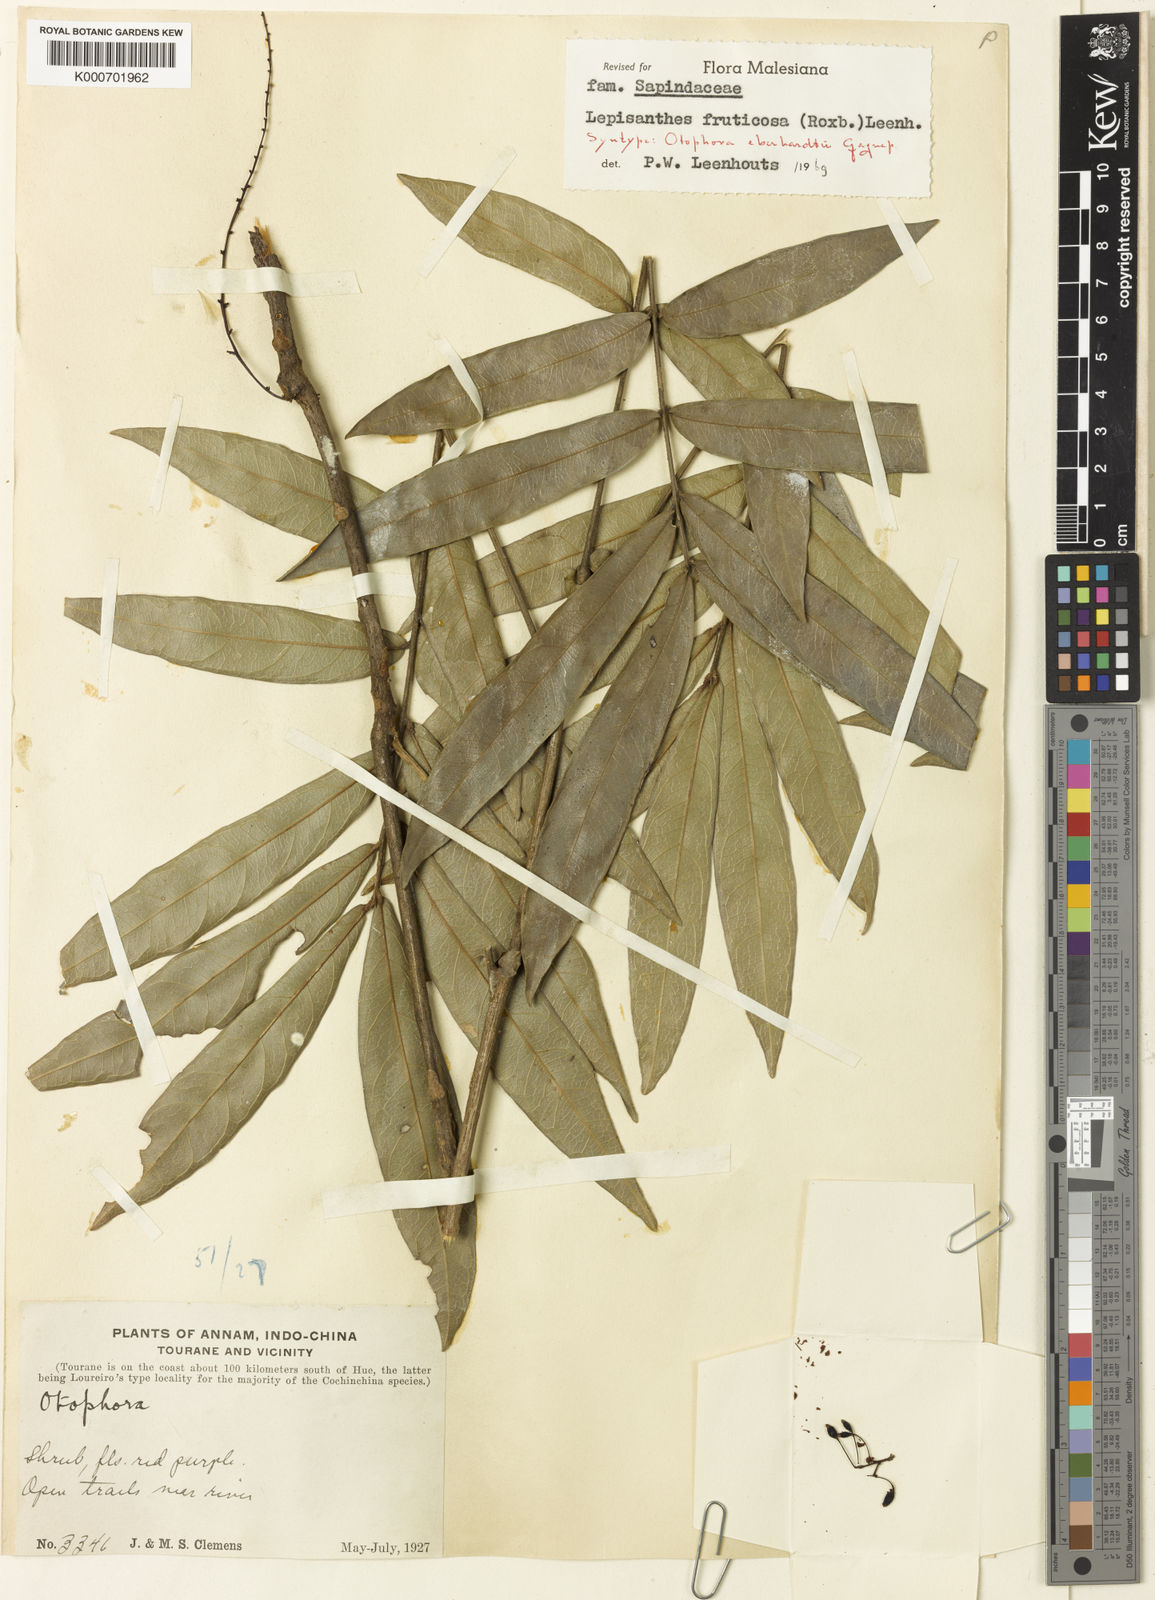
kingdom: Plantae
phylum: Tracheophyta
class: Magnoliopsida
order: Sapindales
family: Sapindaceae
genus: Lepisanthes
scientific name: Lepisanthes fruticosa
